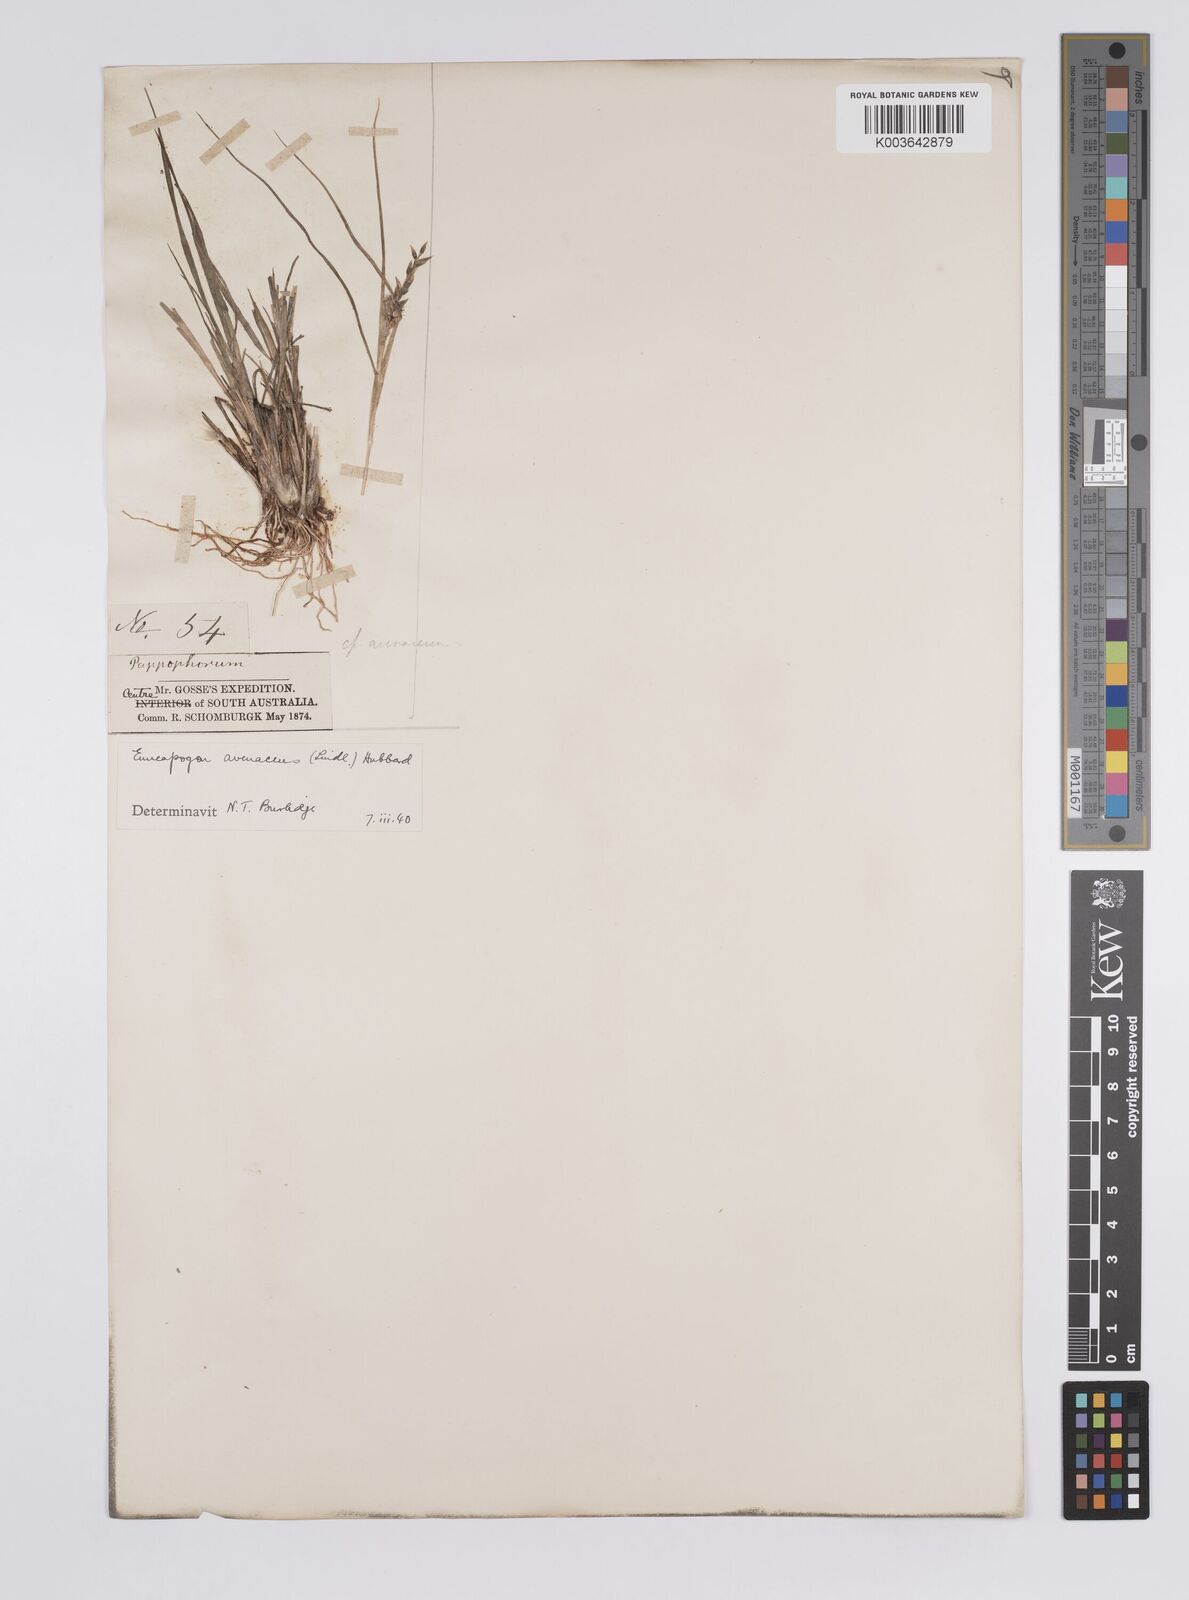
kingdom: Plantae
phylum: Tracheophyta
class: Liliopsida
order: Poales
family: Poaceae
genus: Enneapogon
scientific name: Enneapogon avenaceus
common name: Hairy oat grass
